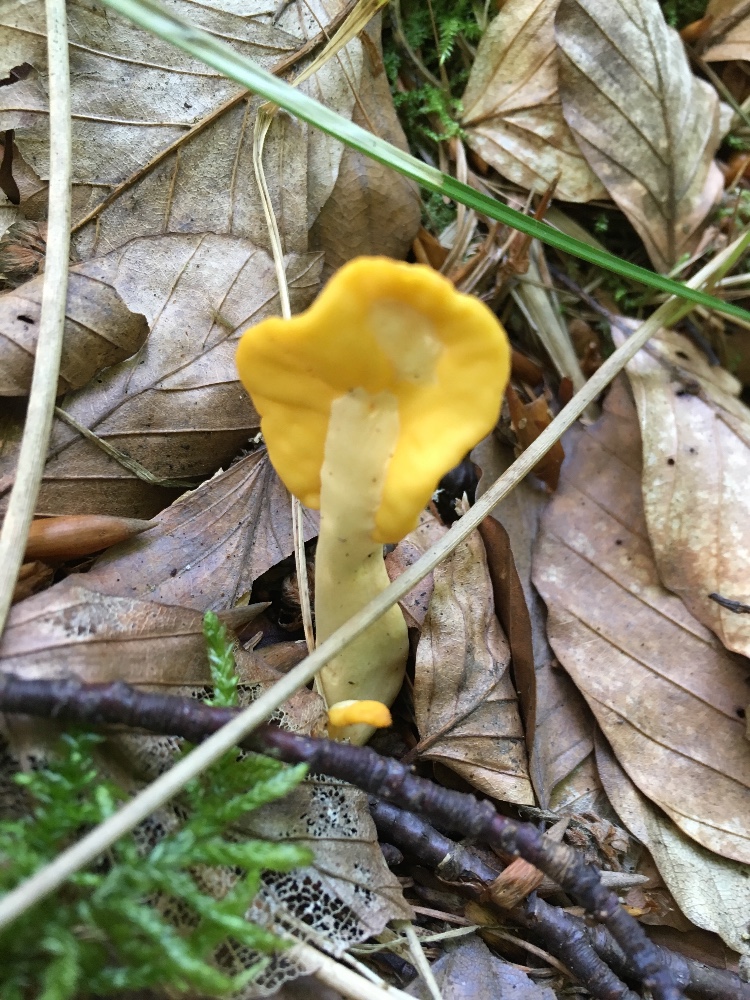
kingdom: Fungi
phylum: Ascomycota
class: Leotiomycetes
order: Rhytismatales
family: Cudoniaceae
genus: Spathularia
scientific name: Spathularia flavida
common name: gul spatelsvamp
